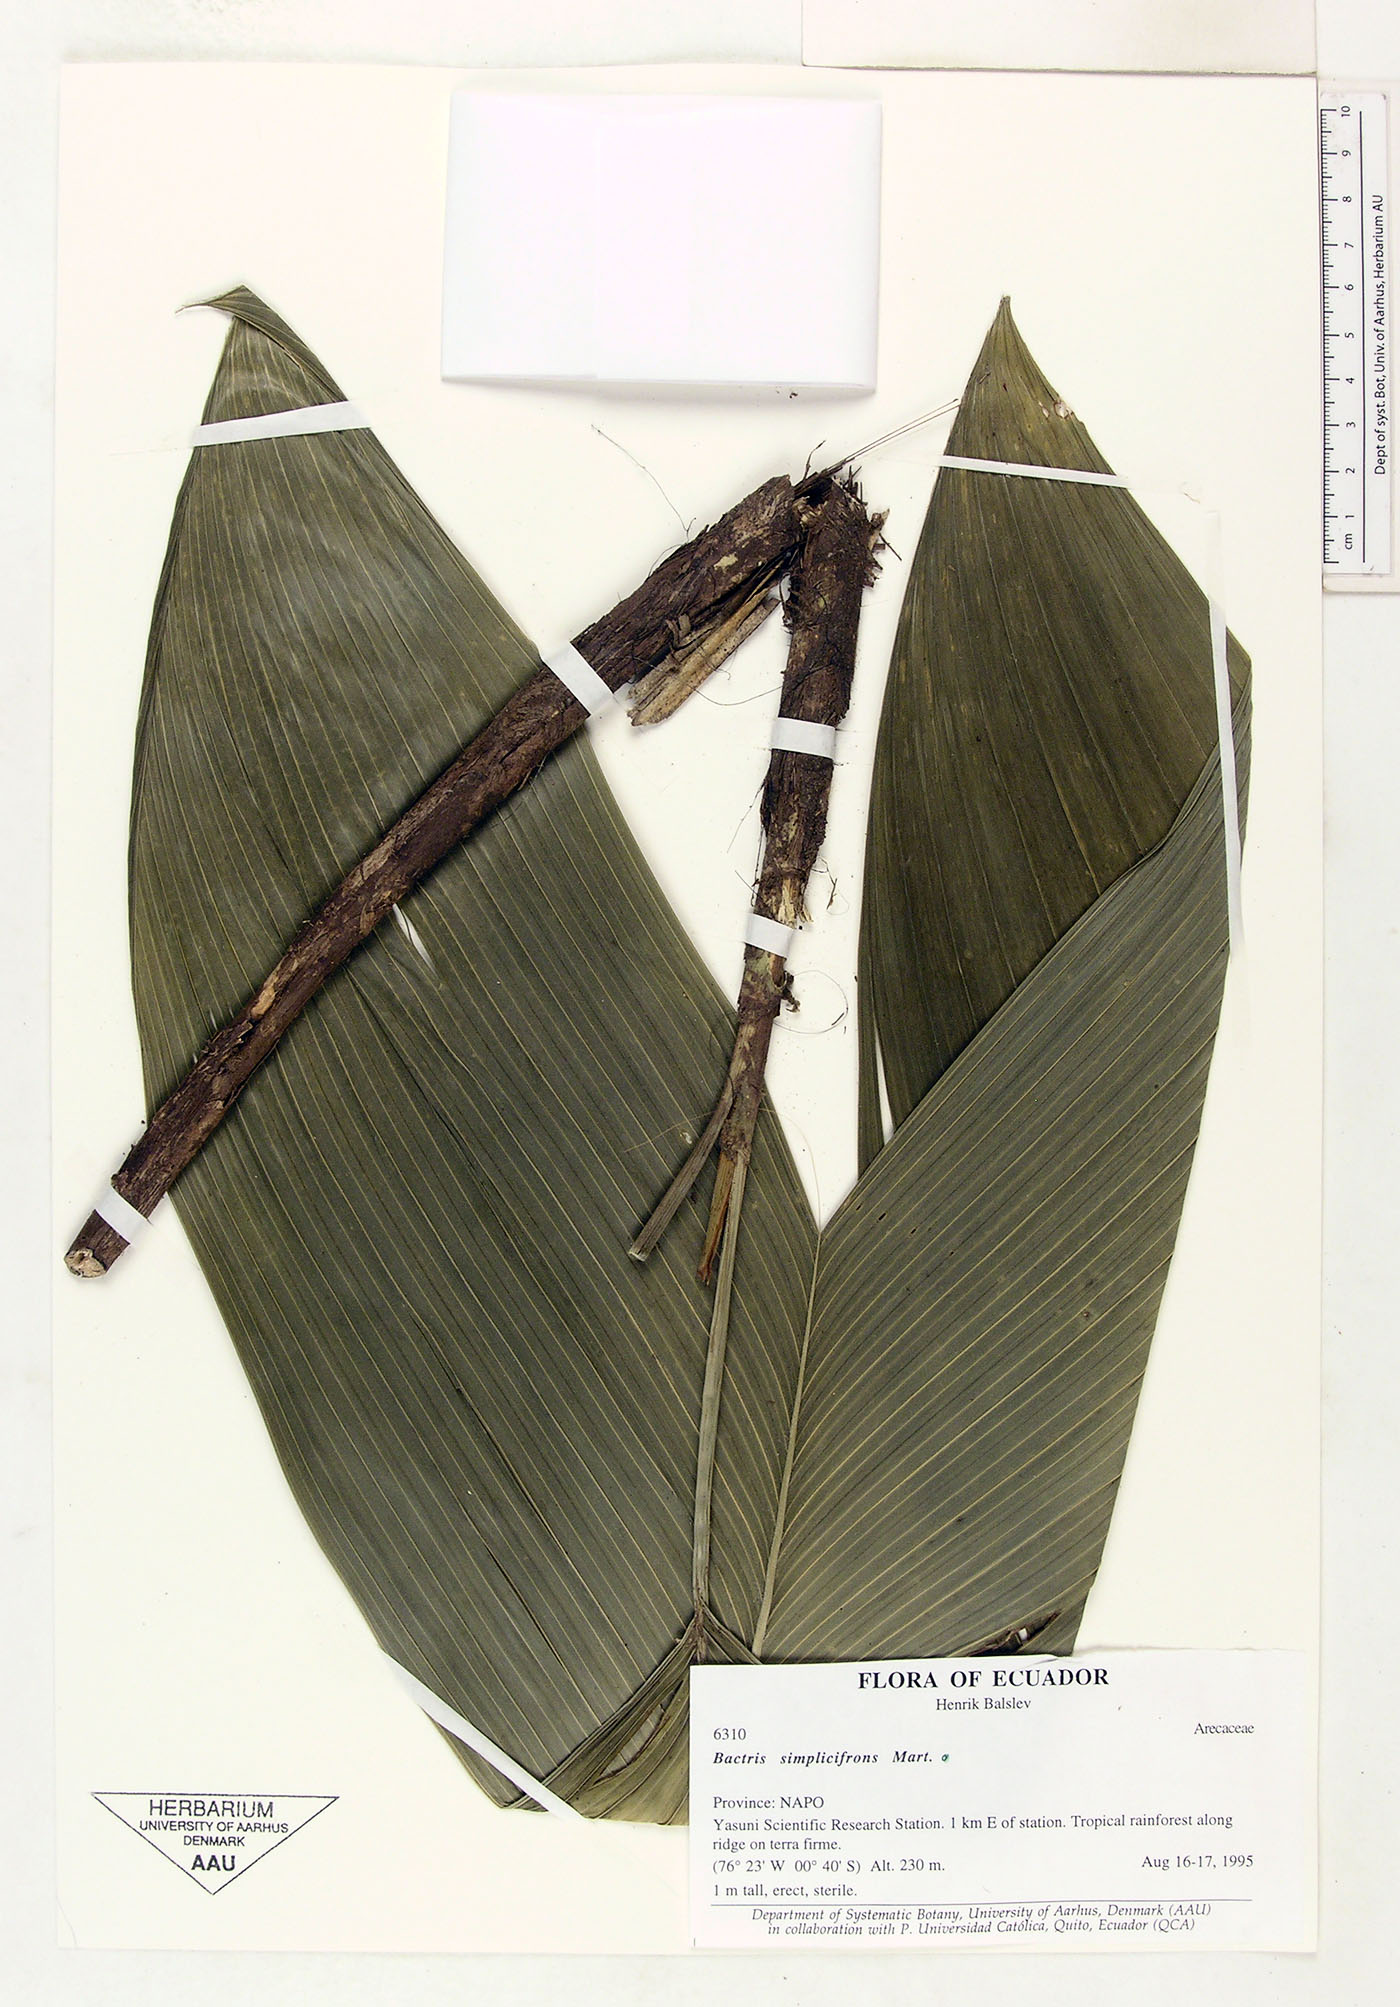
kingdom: Plantae
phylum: Tracheophyta
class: Liliopsida
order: Arecales
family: Arecaceae
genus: Bactris
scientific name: Bactris simplicifrons
